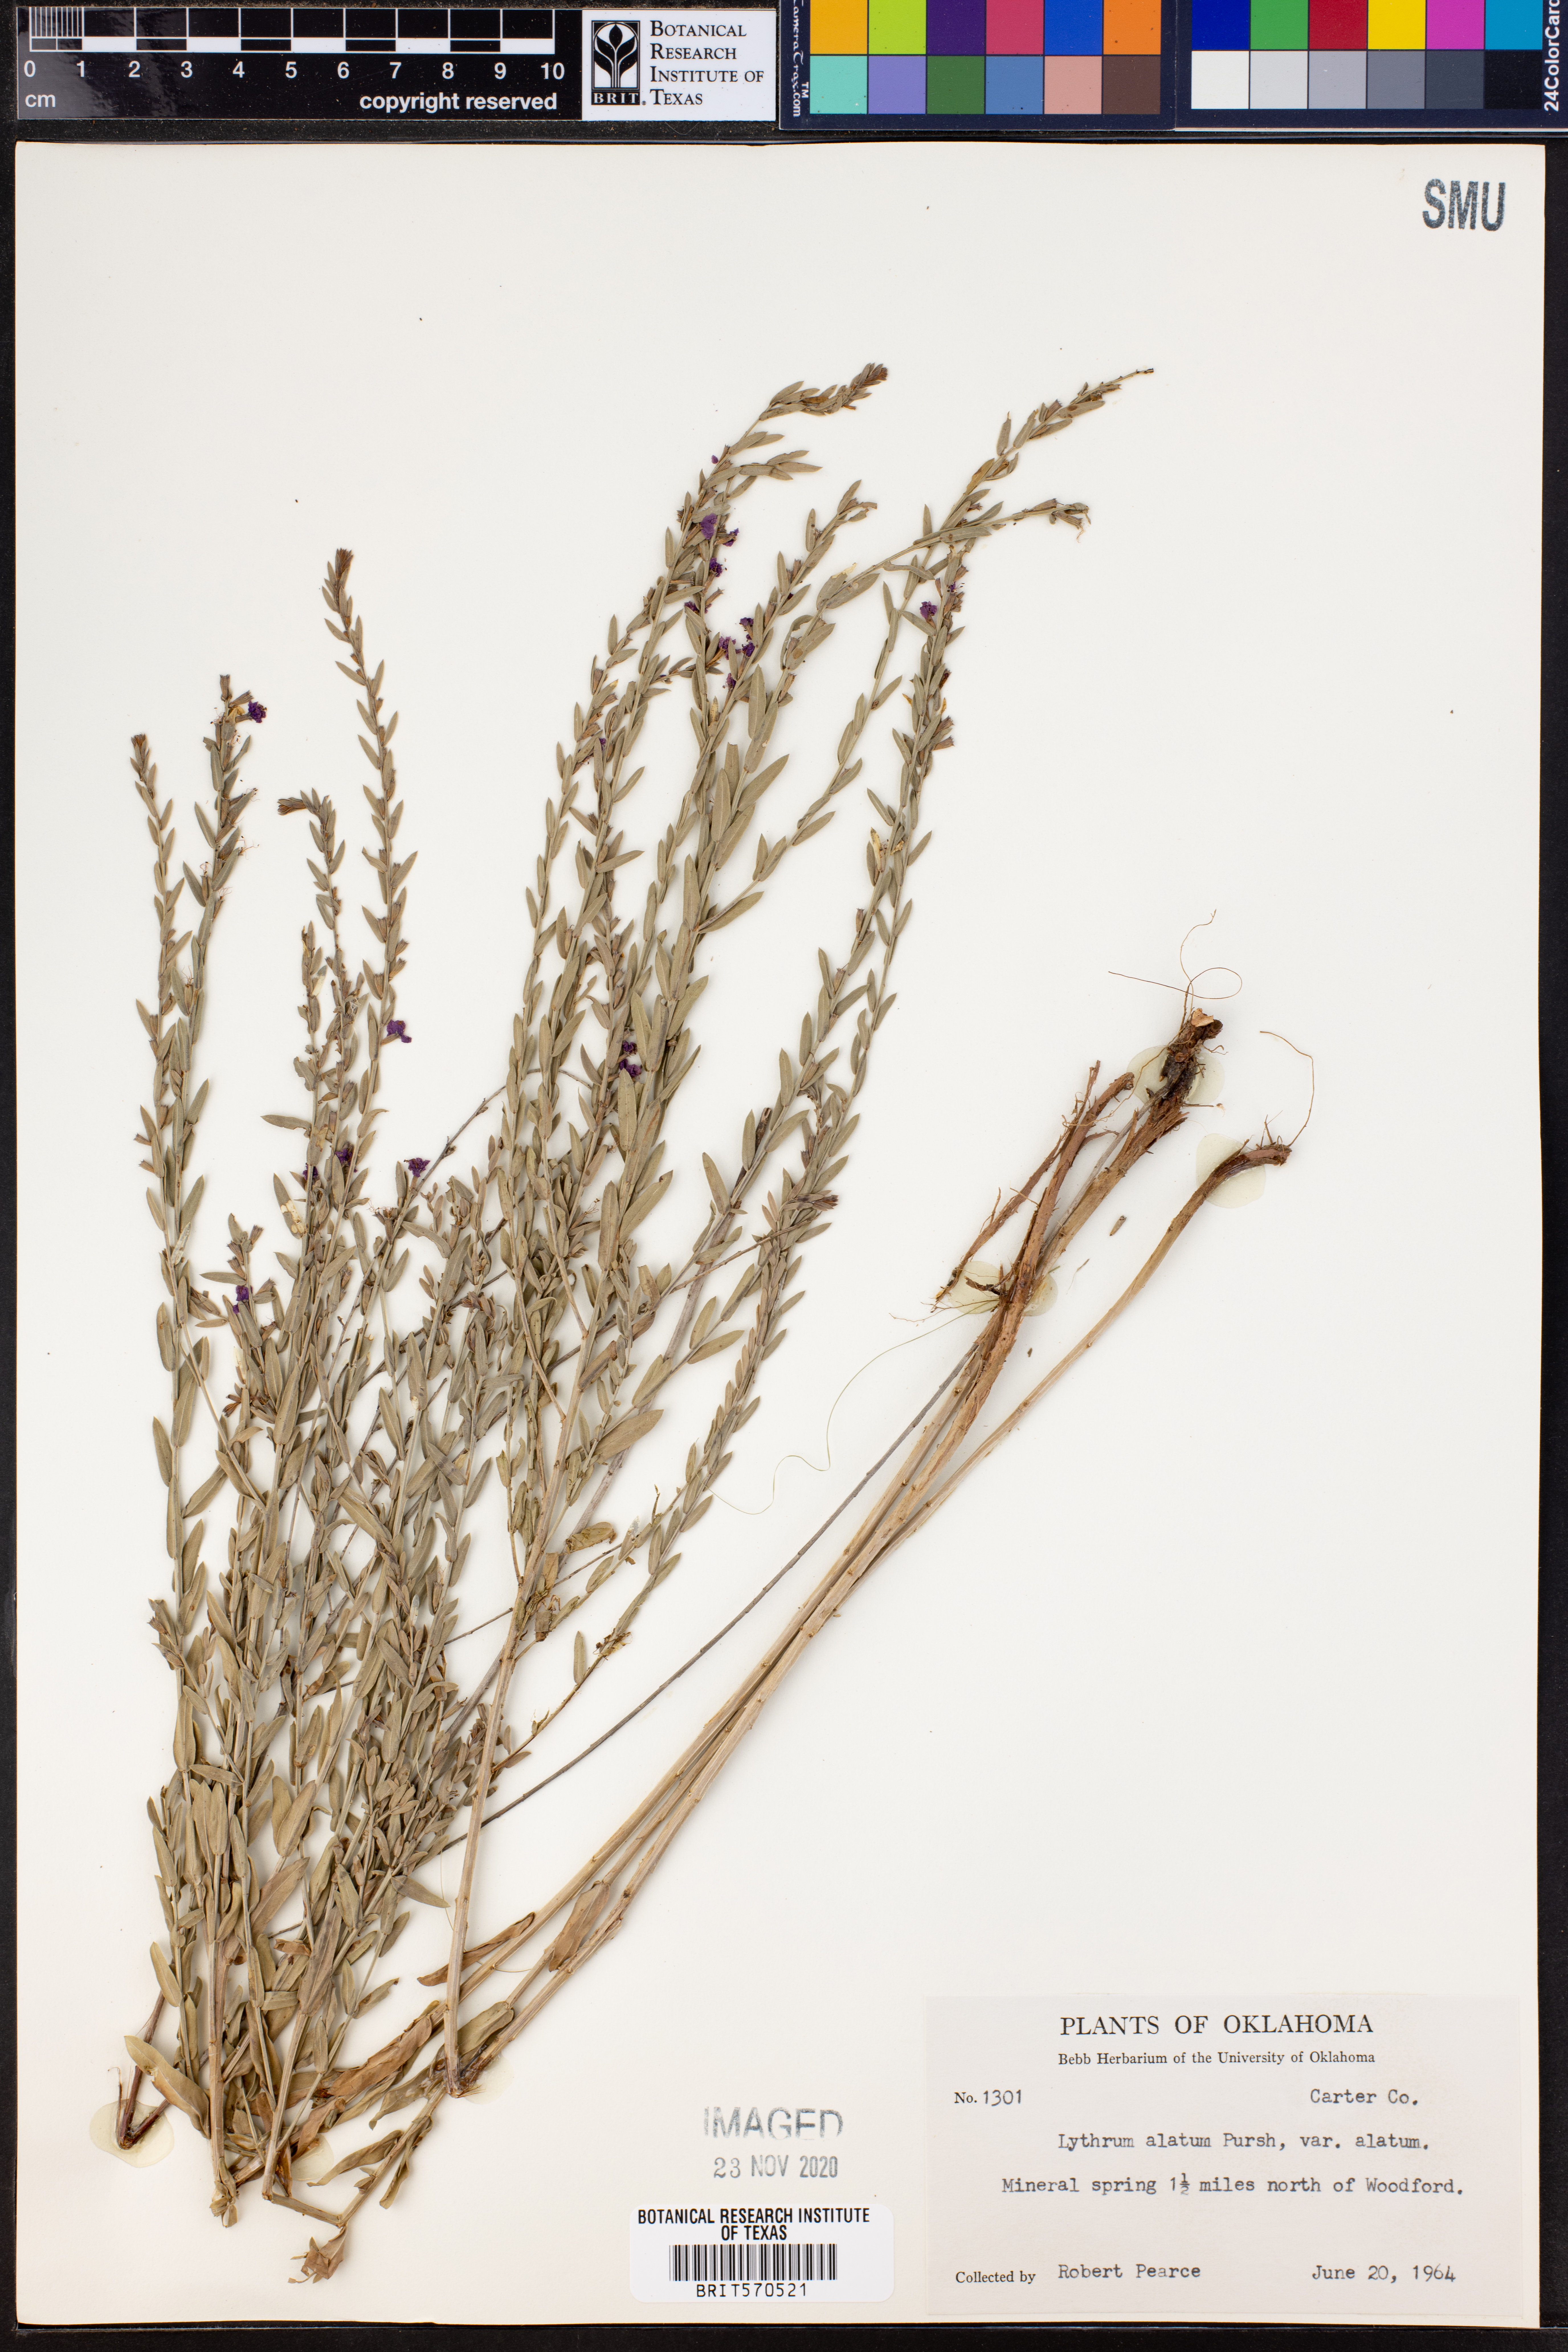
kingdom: Plantae
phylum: Tracheophyta
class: Magnoliopsida
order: Myrtales
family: Lythraceae
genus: Lythrum
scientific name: Lythrum alatum
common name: Winged loosestrife
